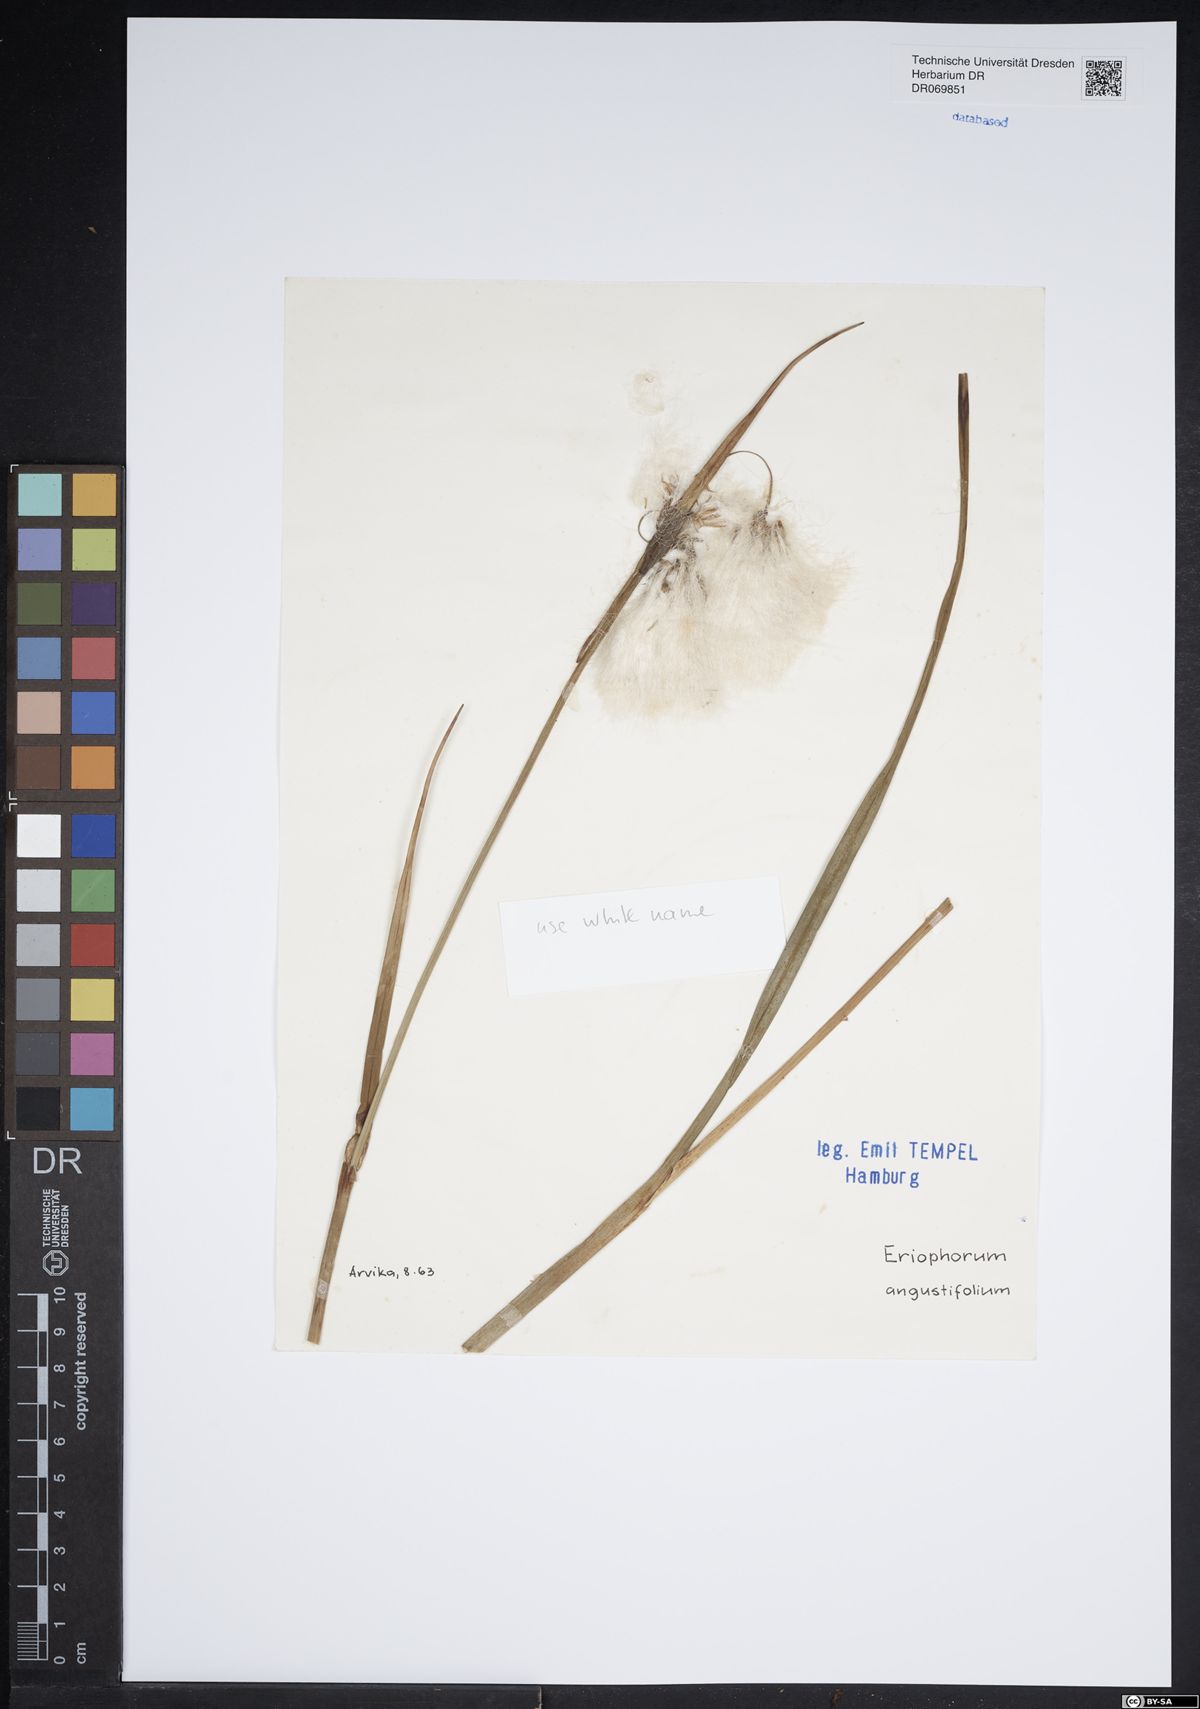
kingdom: Plantae
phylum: Tracheophyta
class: Liliopsida
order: Poales
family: Cyperaceae
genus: Eriophorum
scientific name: Eriophorum angustifolium
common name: Common cottongrass
